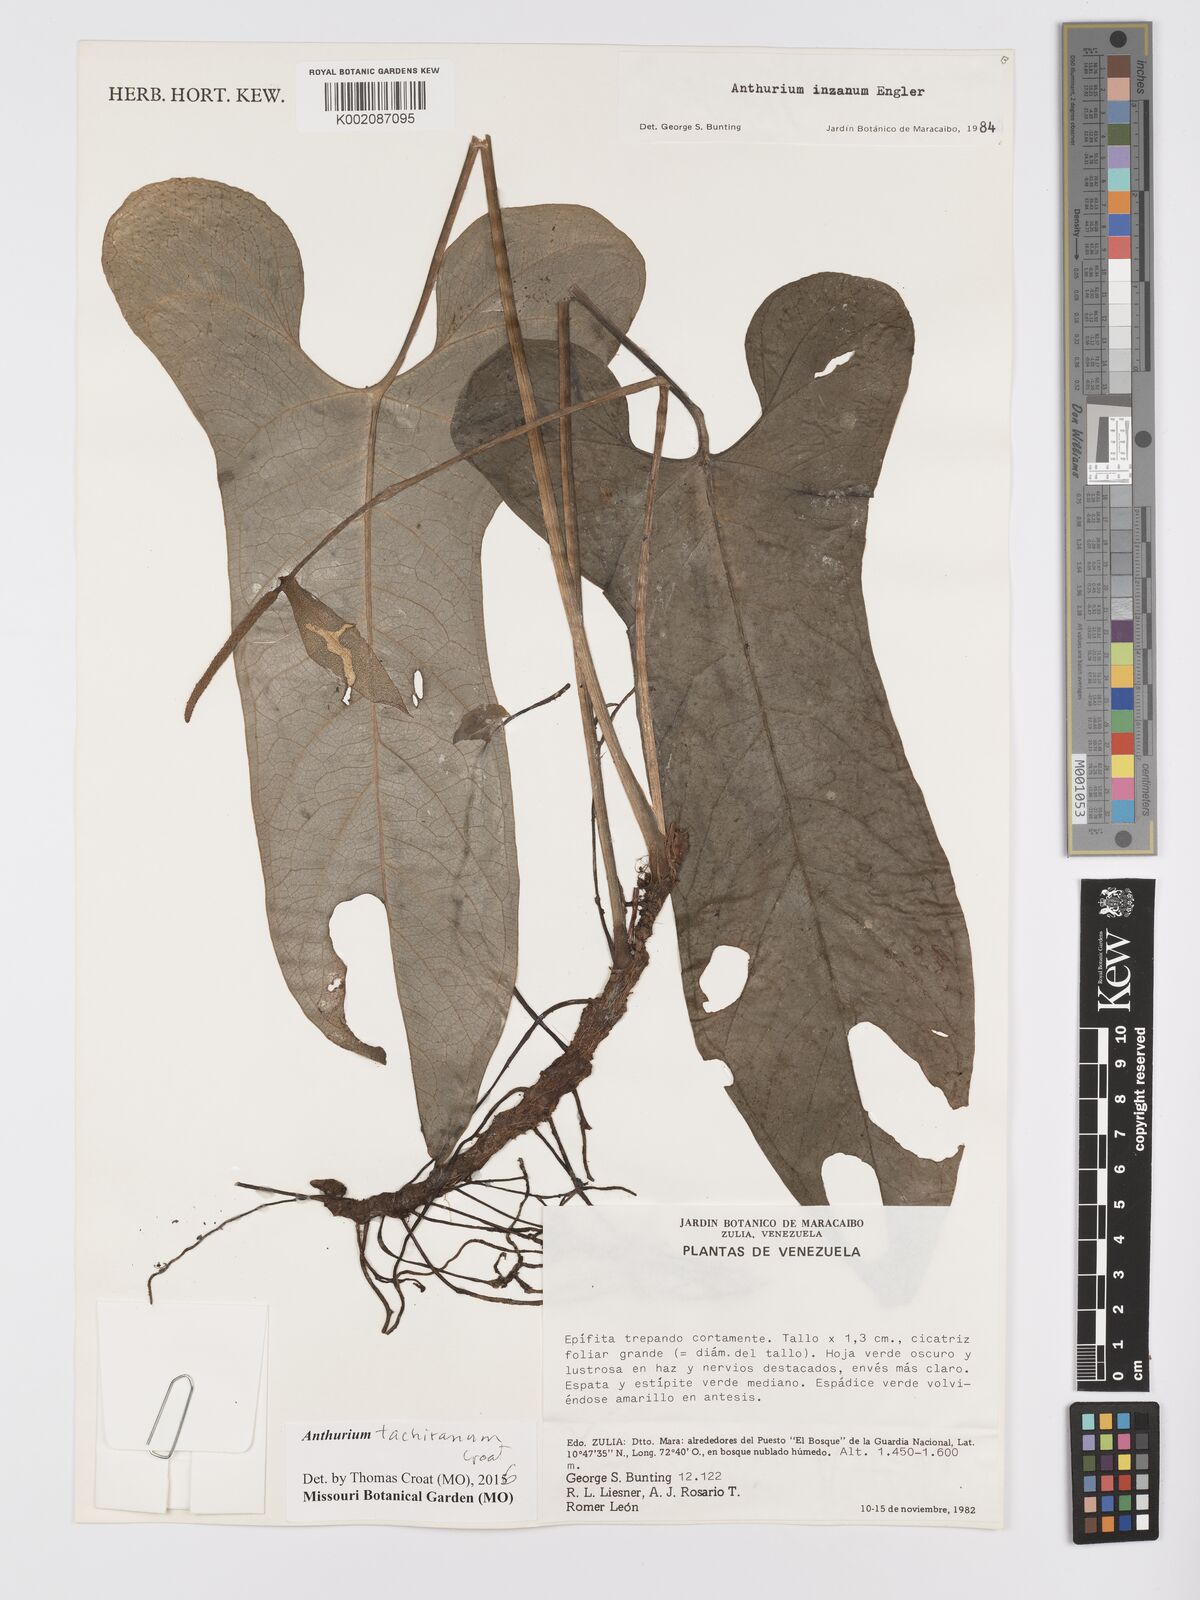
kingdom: Plantae
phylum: Tracheophyta
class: Liliopsida
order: Alismatales
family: Araceae
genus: Anthurium
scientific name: Anthurium tachiranum
